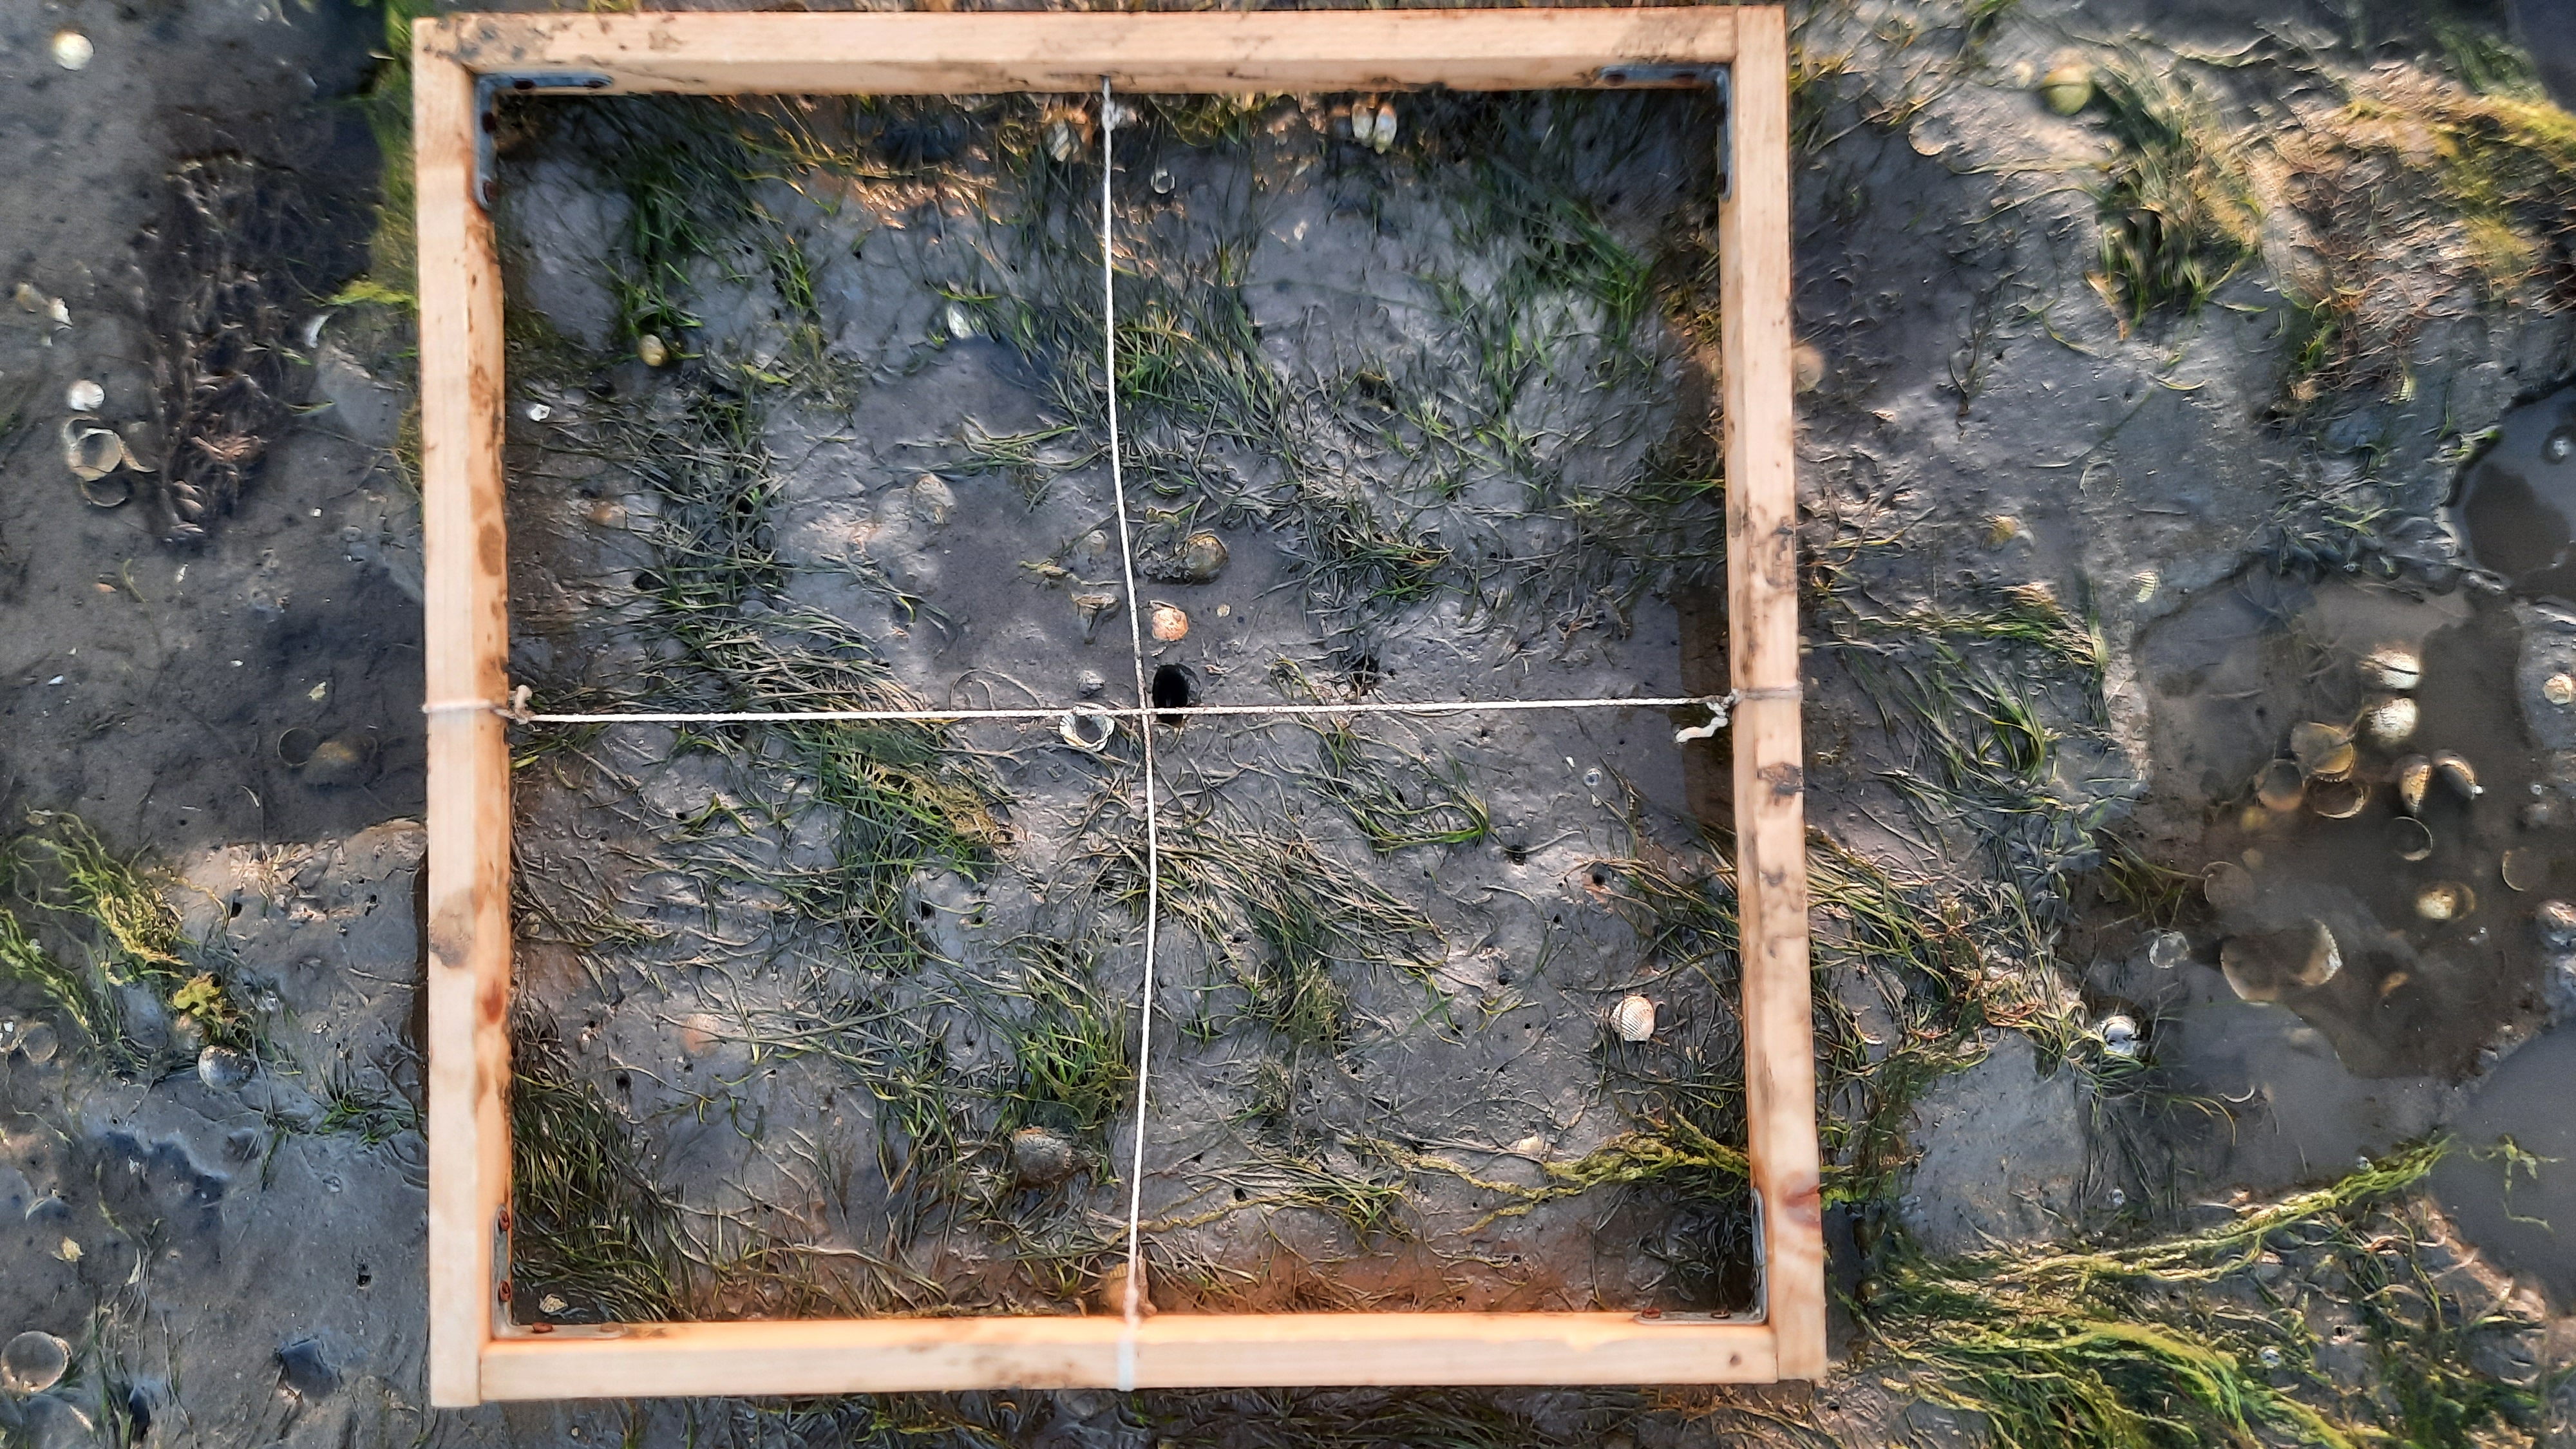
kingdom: Plantae
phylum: Tracheophyta
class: Liliopsida
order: Alismatales
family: Zosteraceae
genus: Zostera
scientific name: Zostera noltii
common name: Dwarf eelgrass
